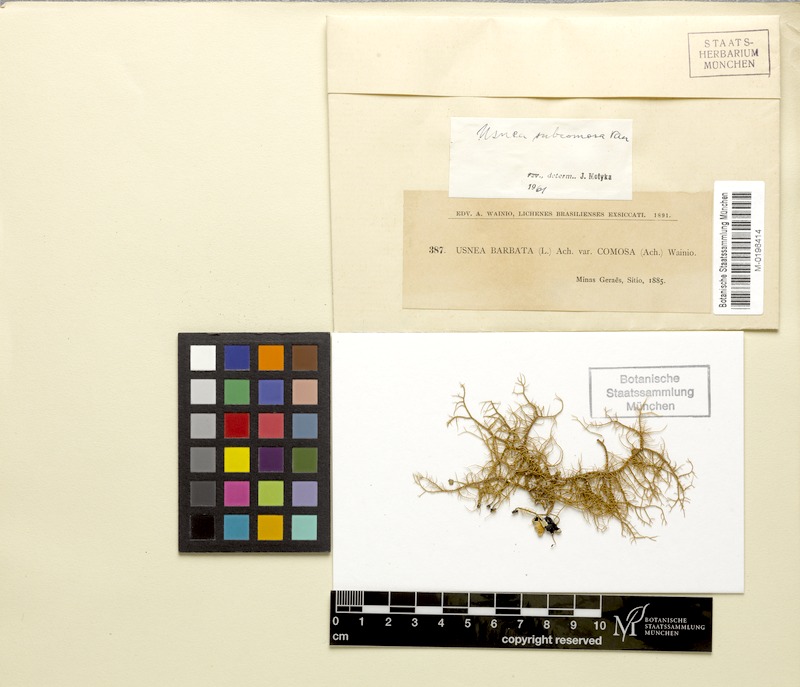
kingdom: Fungi
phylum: Ascomycota
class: Lecanoromycetes
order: Lecanorales
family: Parmeliaceae
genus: Usnea
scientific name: Usnea subcomosa
